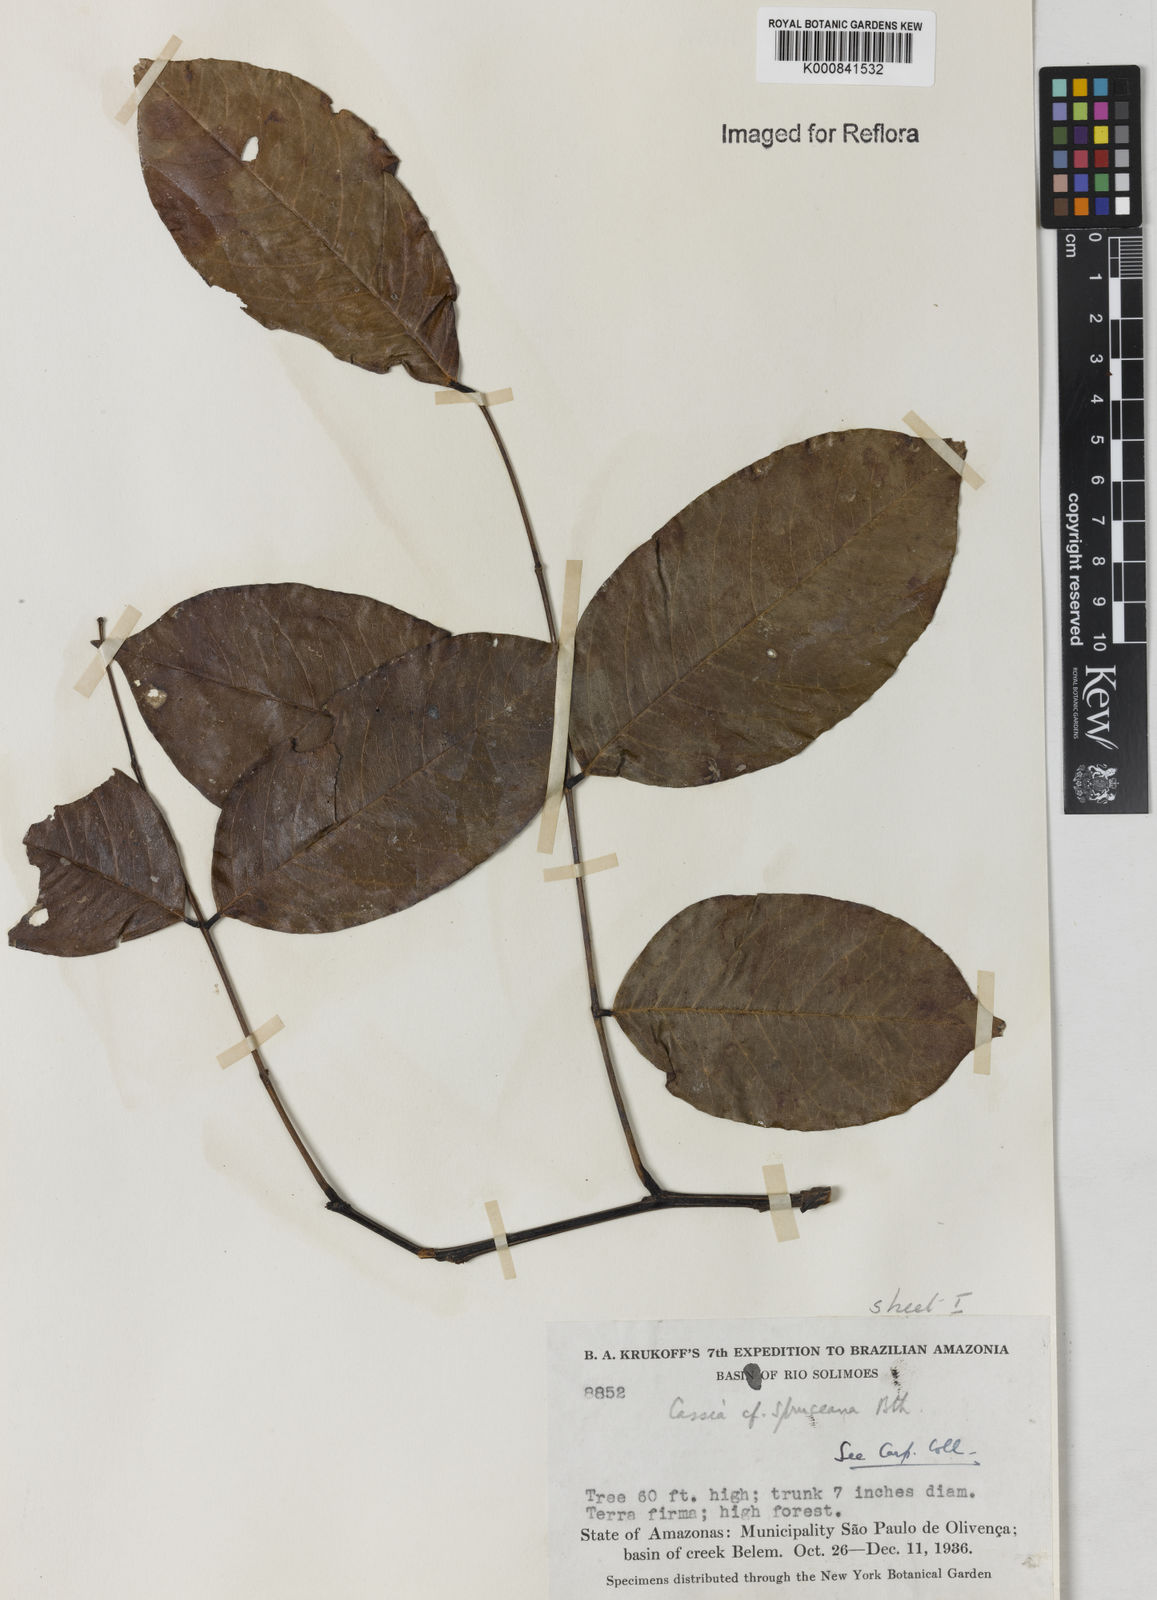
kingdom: Plantae
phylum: Tracheophyta
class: Magnoliopsida
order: Fabales
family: Fabaceae
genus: Cassia
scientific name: Cassia spruceana
